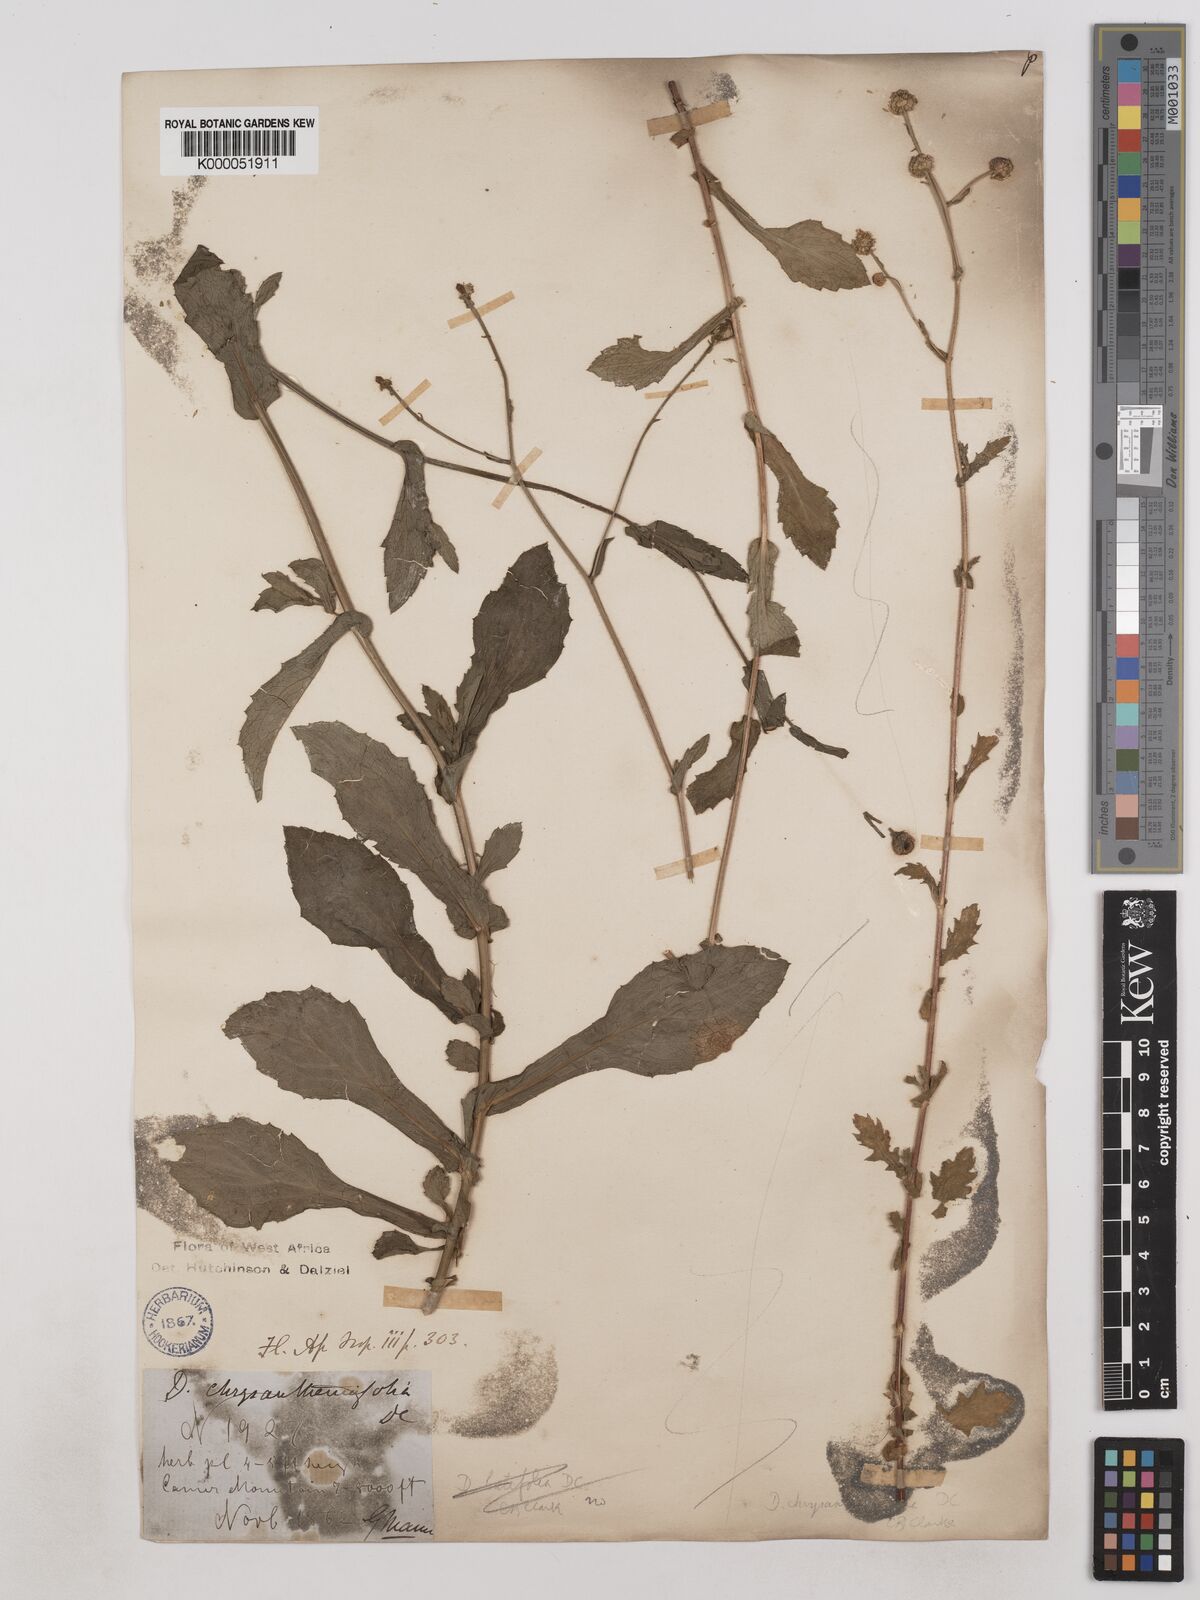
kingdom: Plantae
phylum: Tracheophyta
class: Magnoliopsida
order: Asterales
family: Asteraceae
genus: Dichrocephala
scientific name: Dichrocephala chrysanthemifolia
